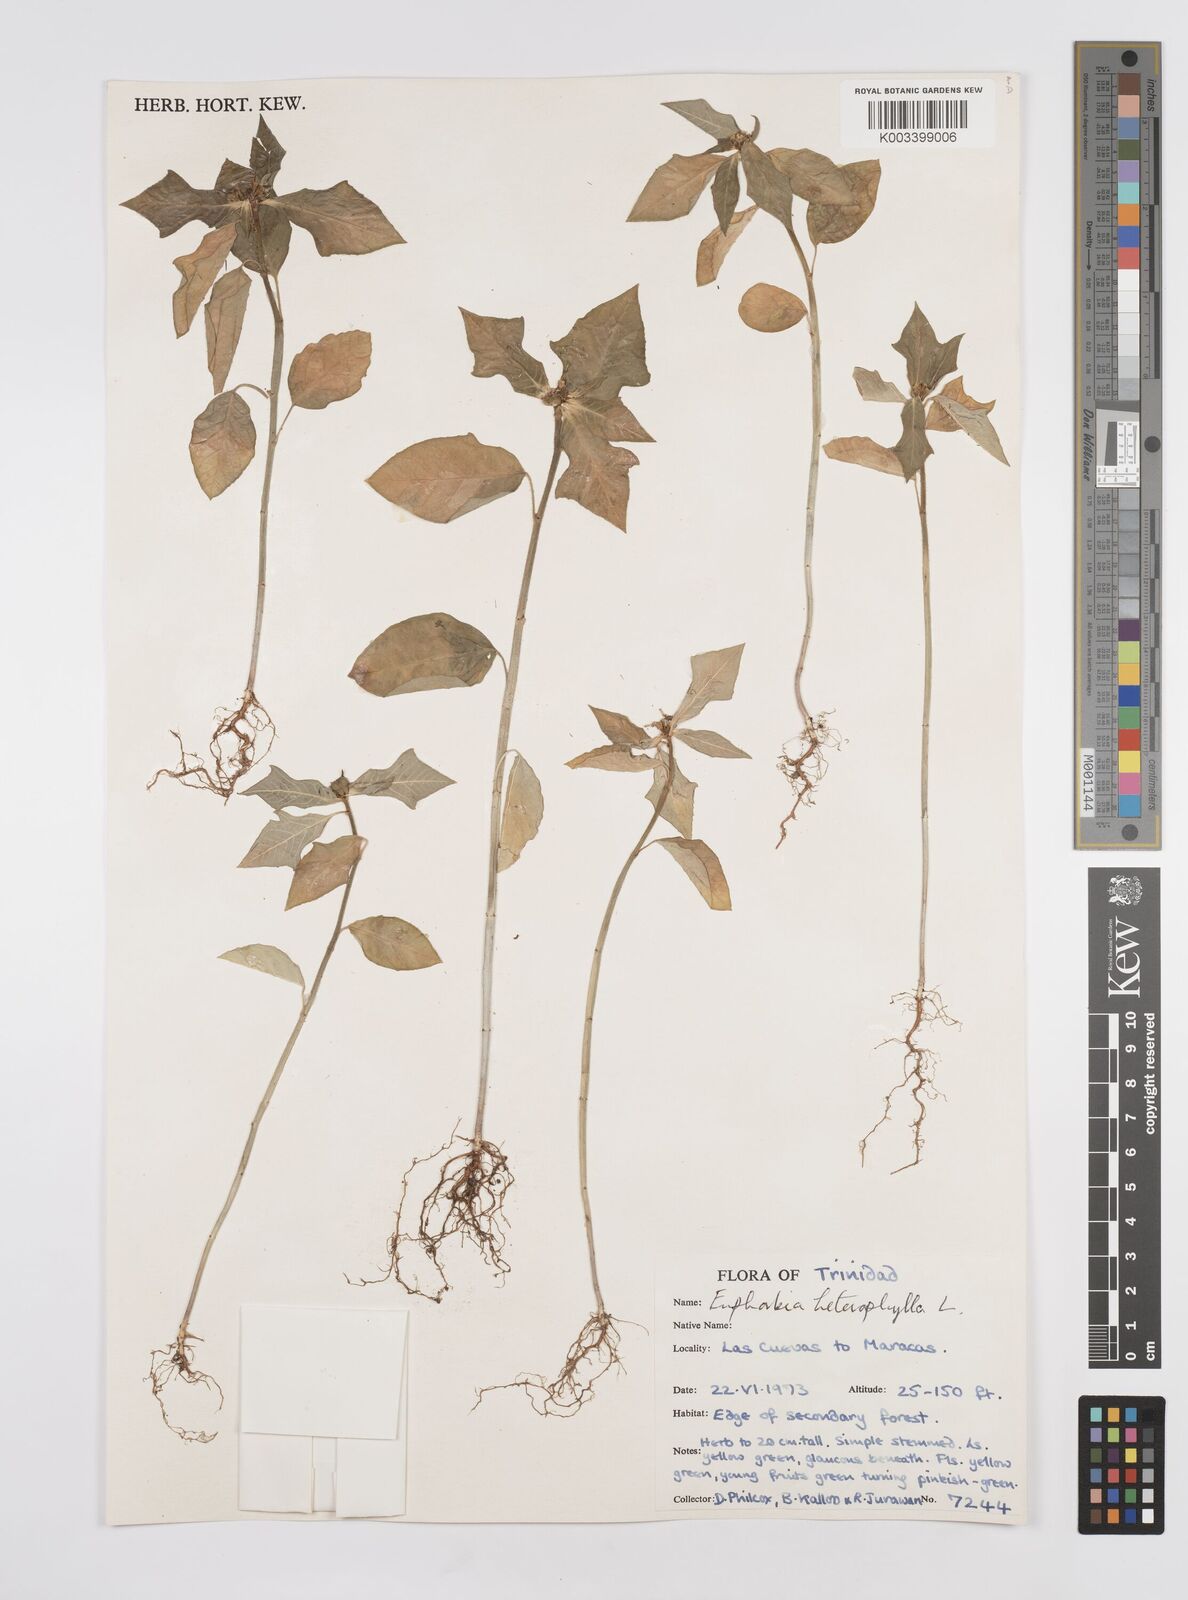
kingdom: Plantae
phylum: Tracheophyta
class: Magnoliopsida
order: Malpighiales
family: Euphorbiaceae
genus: Euphorbia
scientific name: Euphorbia heterophylla
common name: Mexican fireplant
